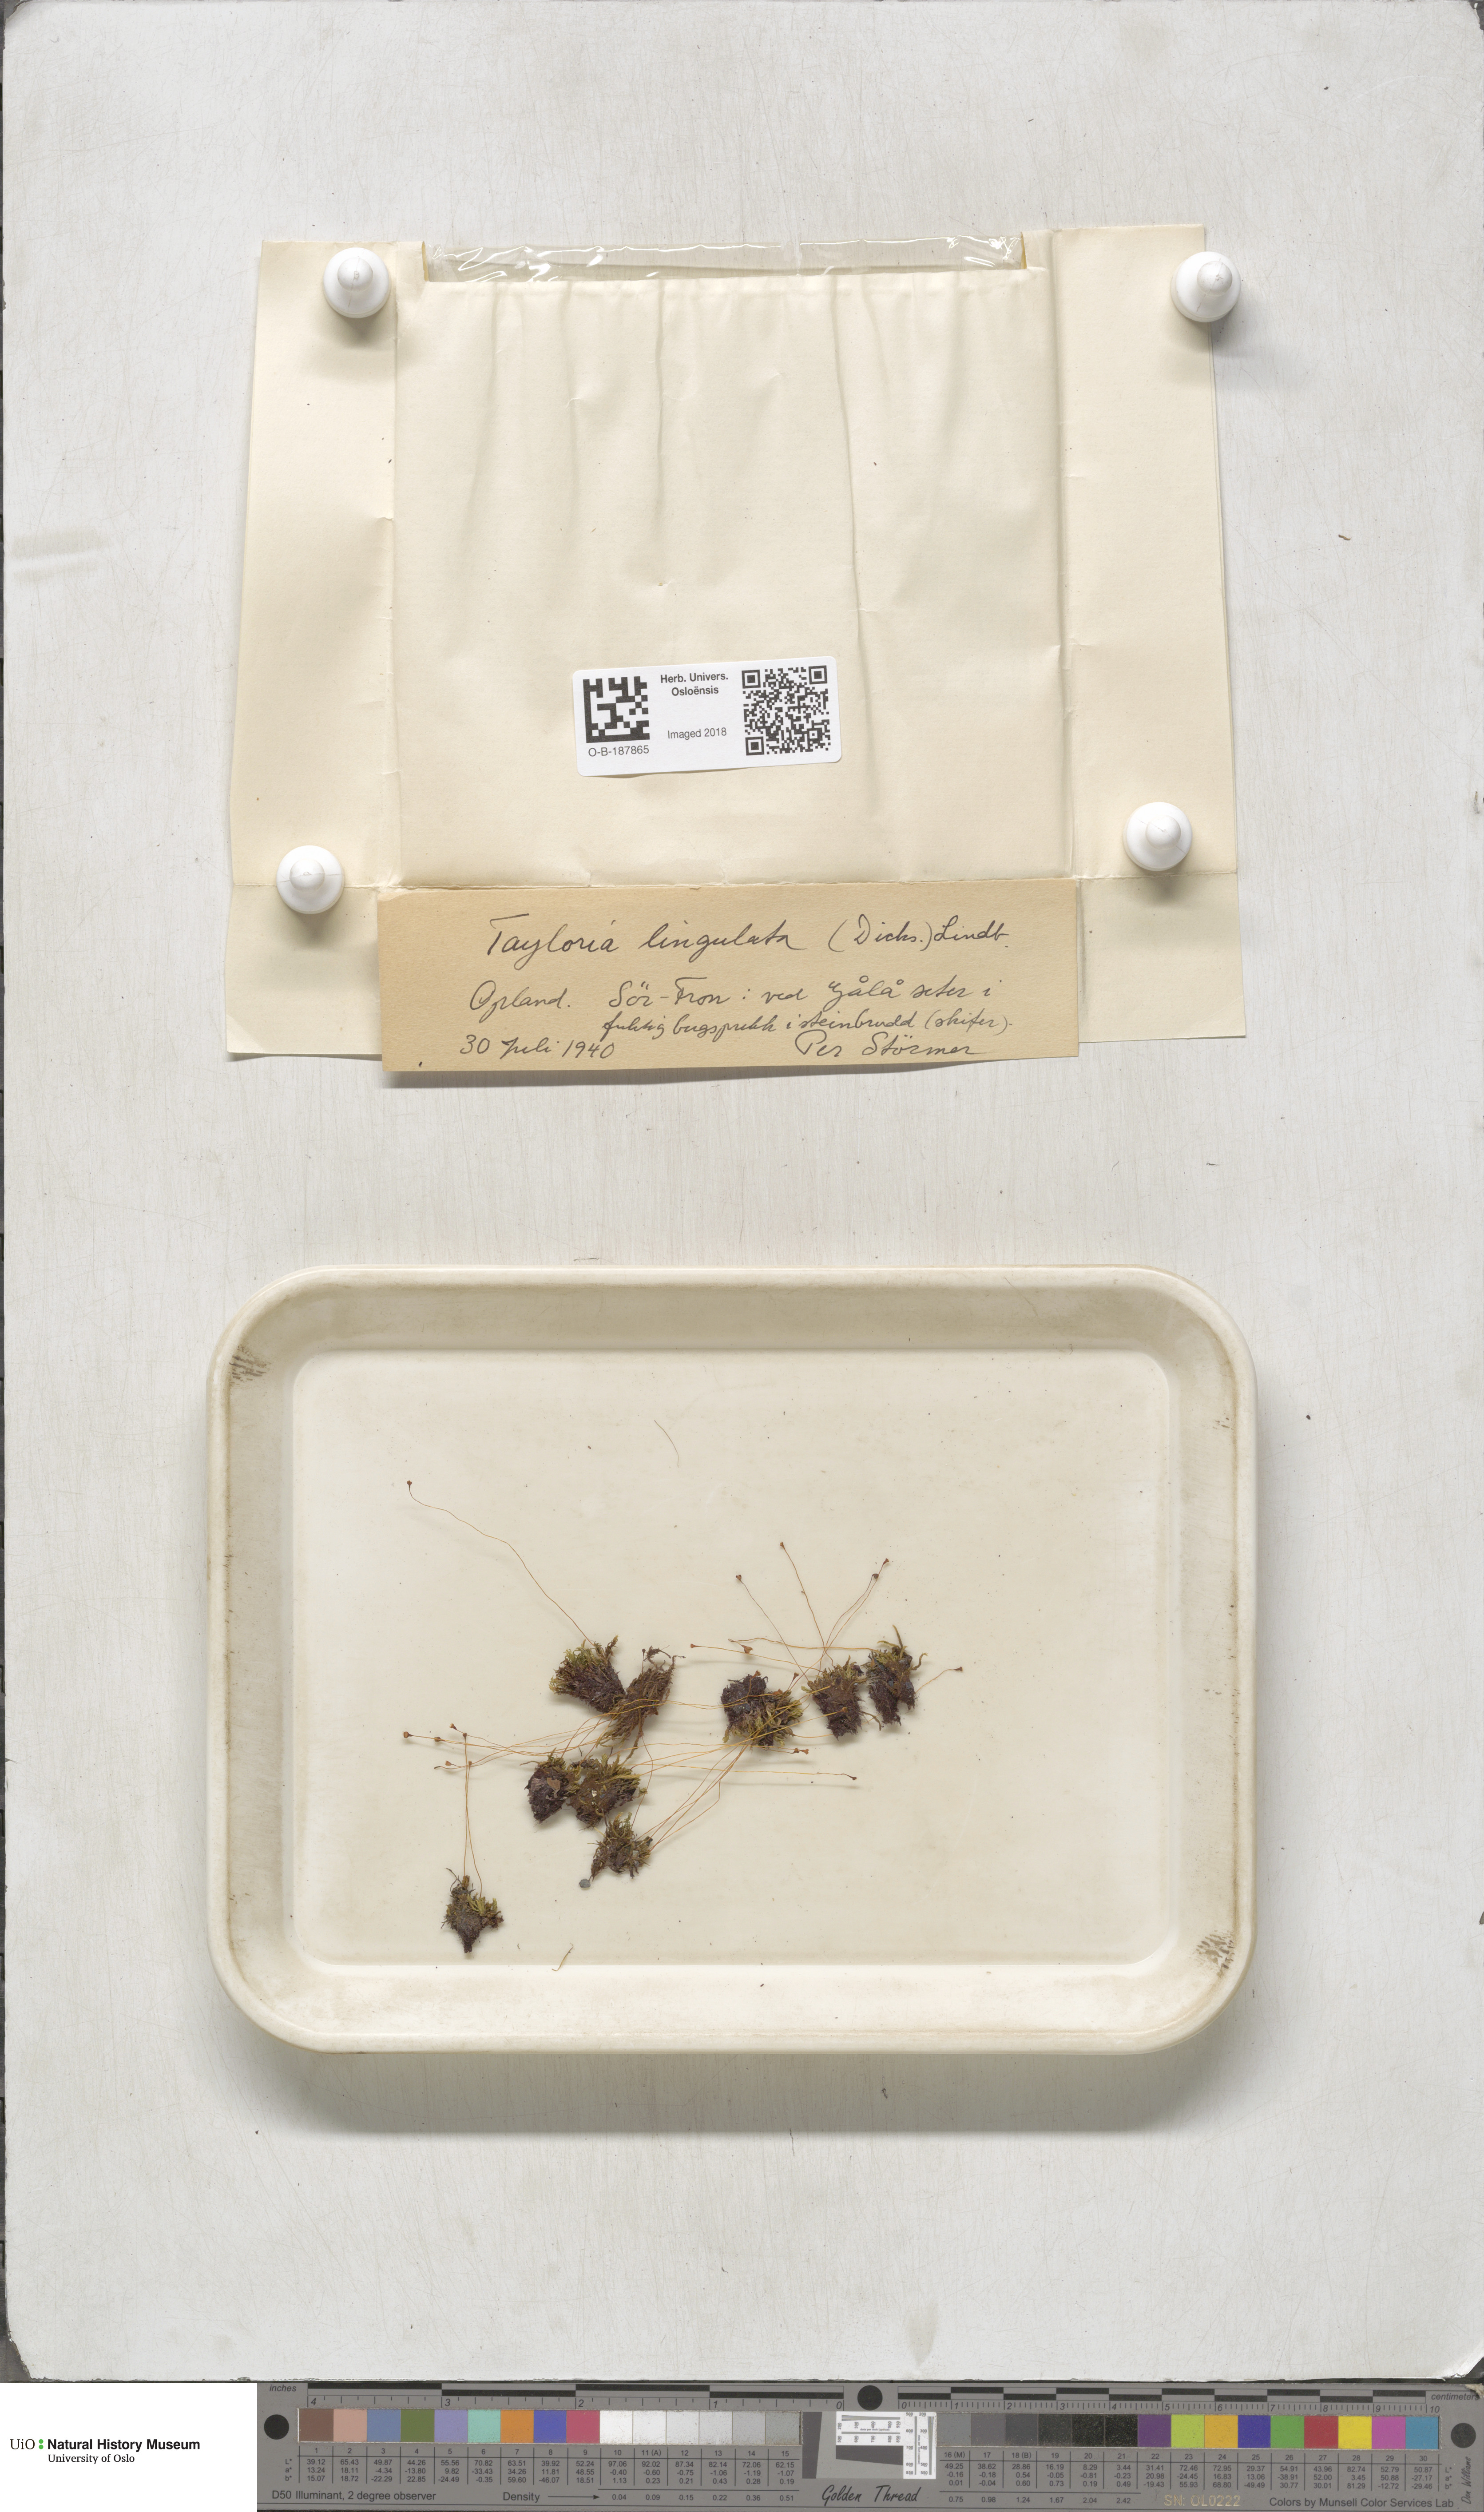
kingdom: Plantae
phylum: Bryophyta
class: Bryopsida
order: Splachnales
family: Splachnaceae
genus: Tayloria
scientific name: Tayloria lingulata
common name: Tongue-leaved trumpet moss
